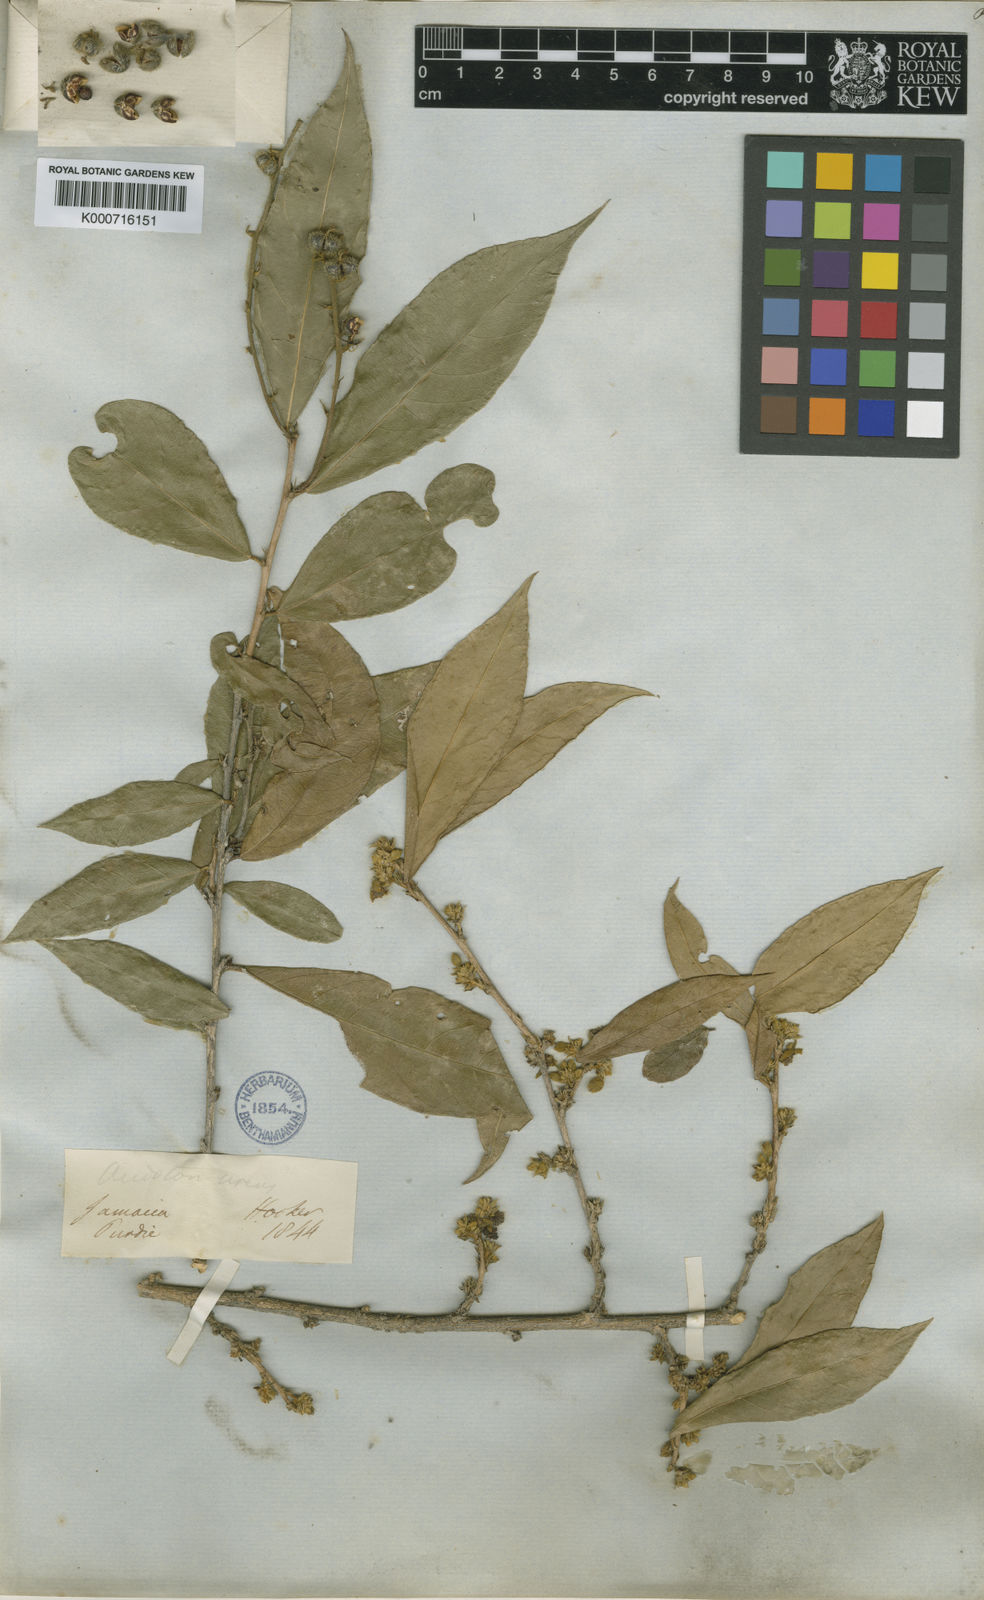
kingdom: Plantae
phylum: Tracheophyta
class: Magnoliopsida
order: Malpighiales
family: Euphorbiaceae
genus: Acidoton
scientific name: Acidoton urens
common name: Mountain cow-itch
